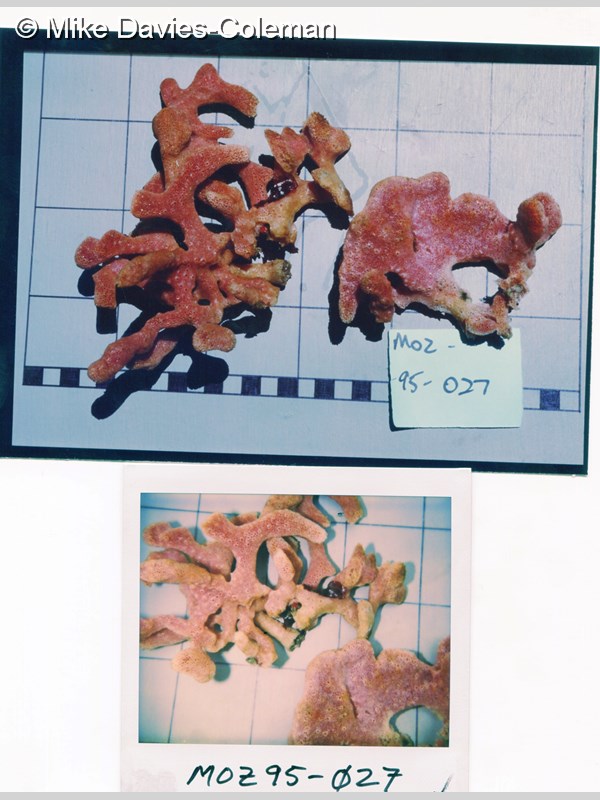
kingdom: Animalia
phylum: Porifera
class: Demospongiae
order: Haplosclerida
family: Niphatidae
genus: Niphates
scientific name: Niphates
